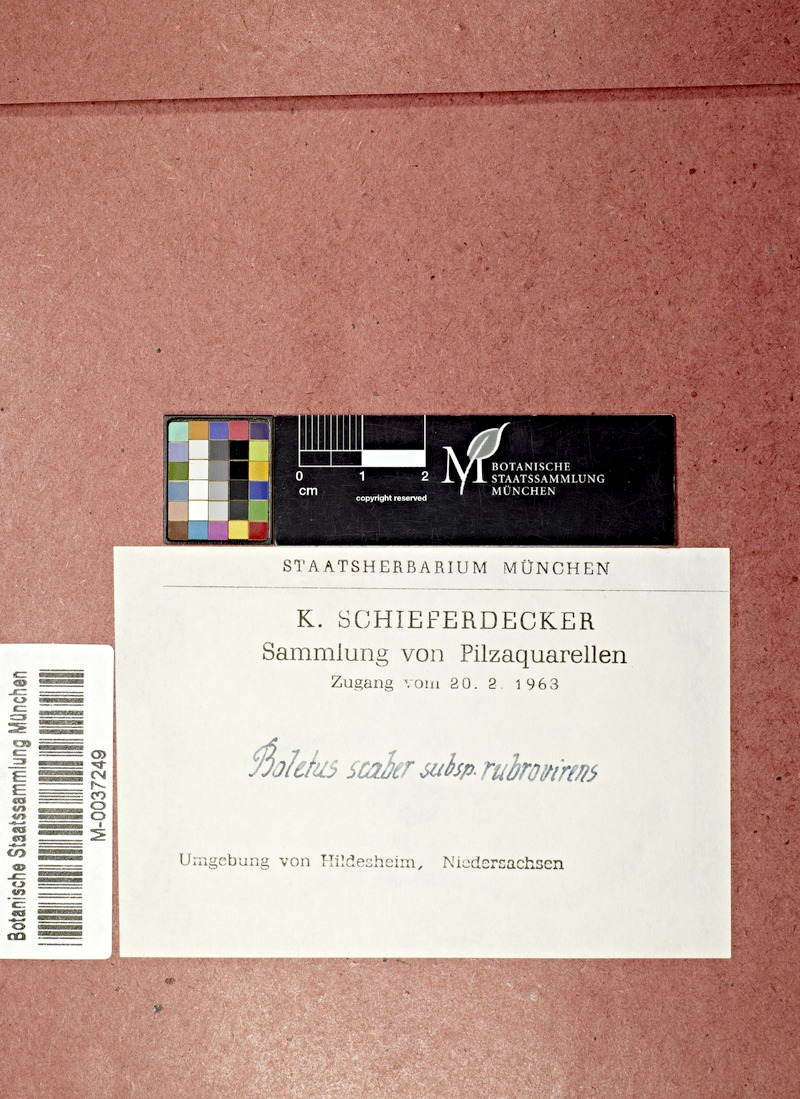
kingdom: Fungi
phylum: Basidiomycota
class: Agaricomycetes
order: Boletales
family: Boletaceae
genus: Leccinum
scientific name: Leccinum scabrum
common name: Blushing bolete
